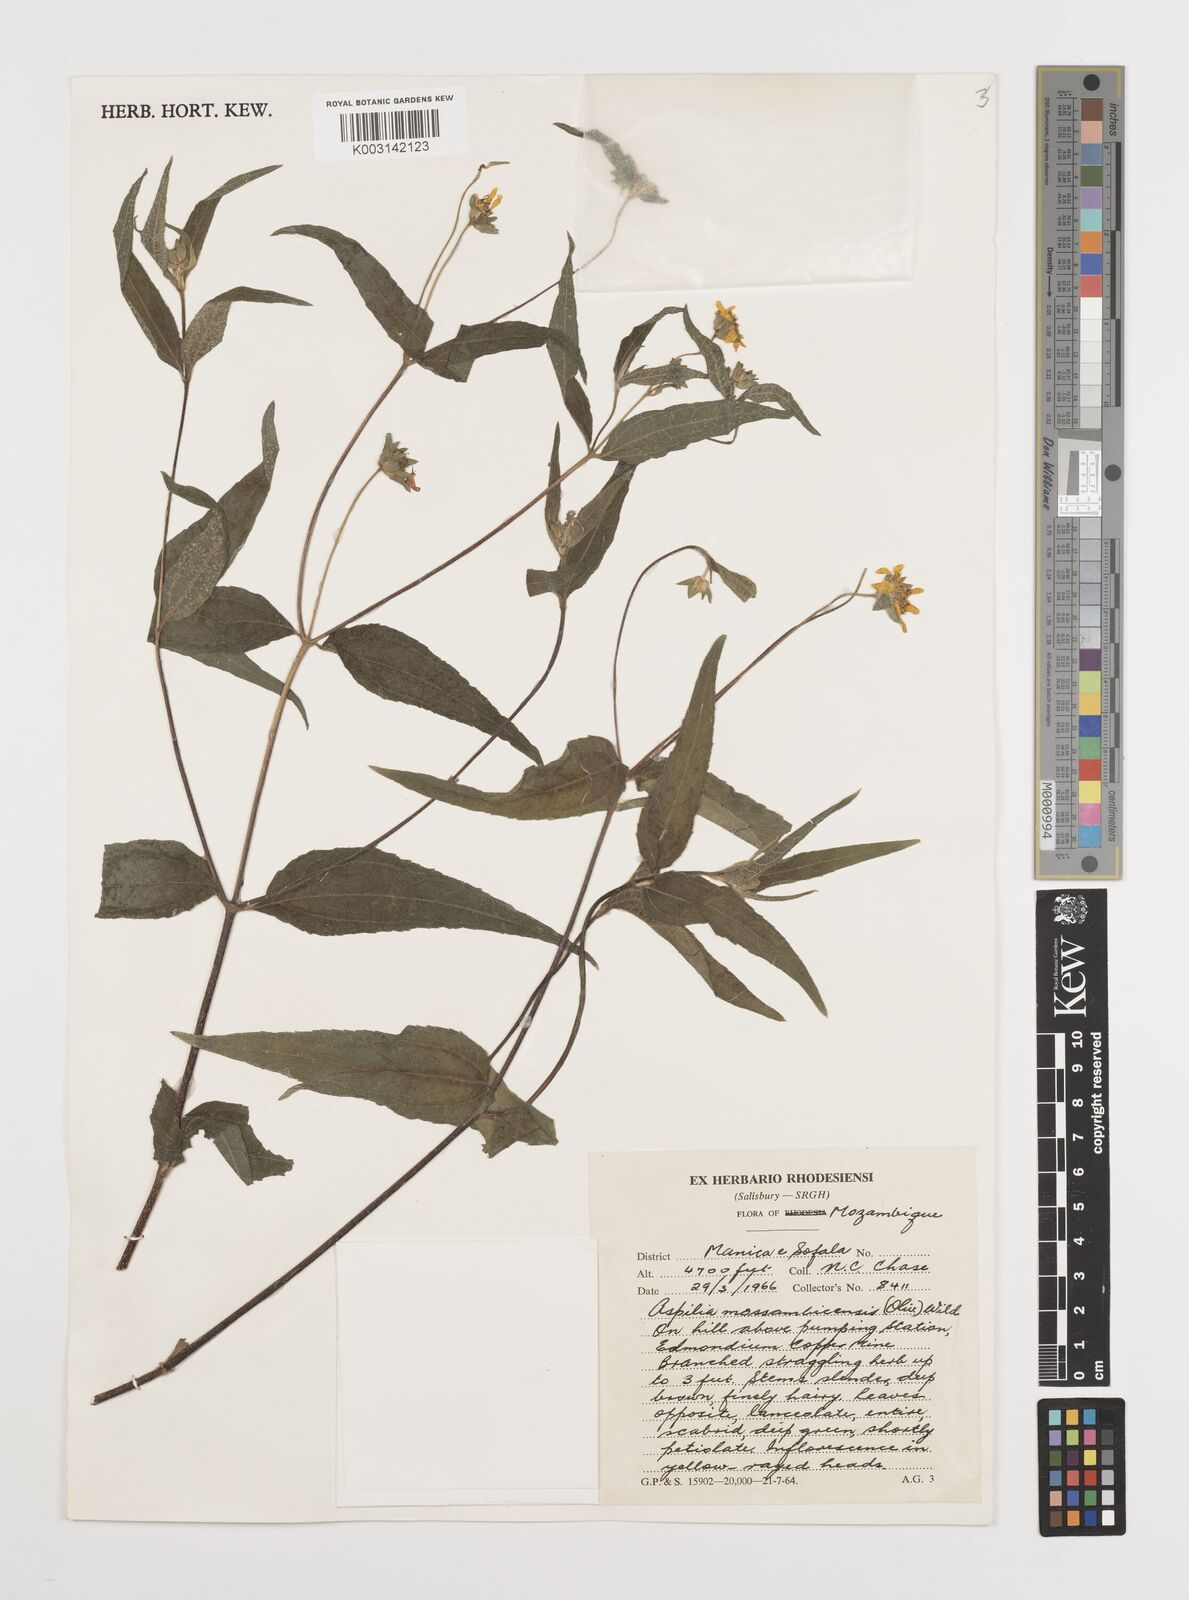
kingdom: Plantae
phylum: Tracheophyta
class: Magnoliopsida
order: Asterales
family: Asteraceae
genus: Aspilia
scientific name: Aspilia mossambicensis
